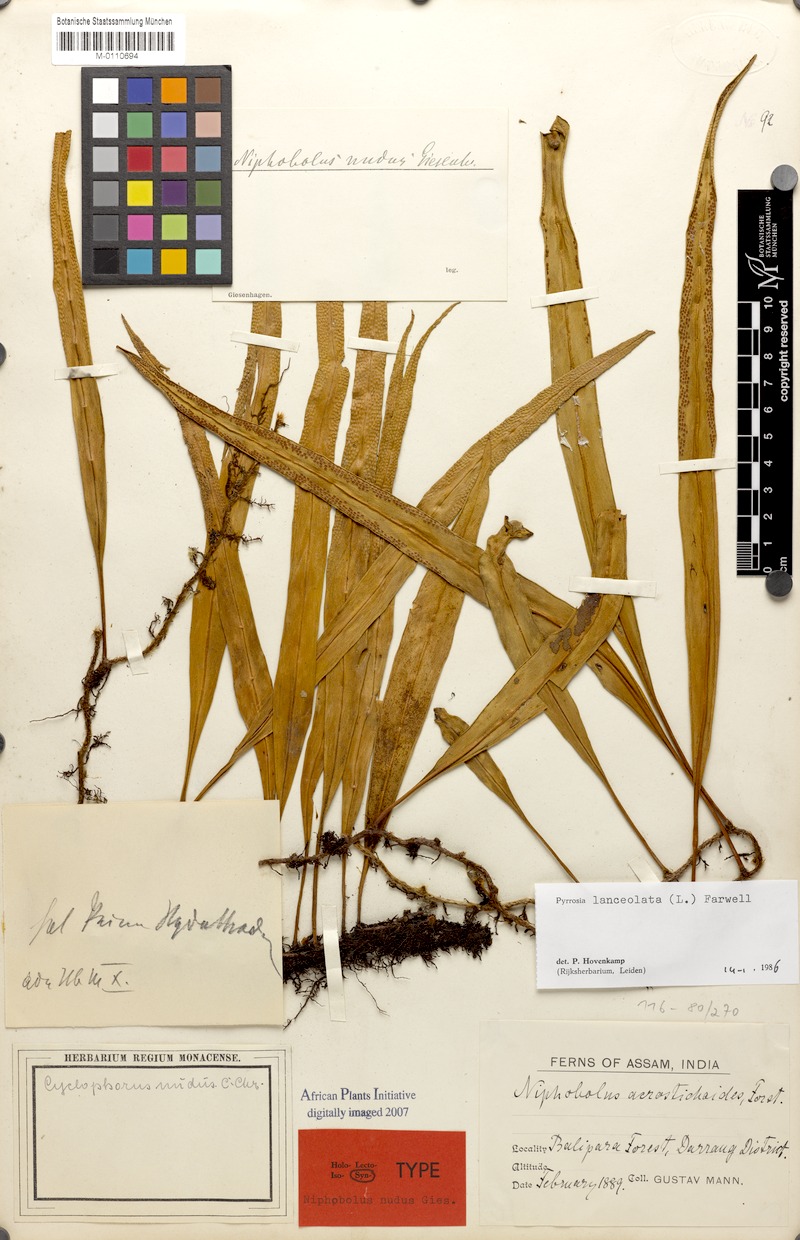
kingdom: Plantae
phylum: Tracheophyta
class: Polypodiopsida
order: Polypodiales
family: Polypodiaceae
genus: Pyrrosia
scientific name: Pyrrosia lanceolata
